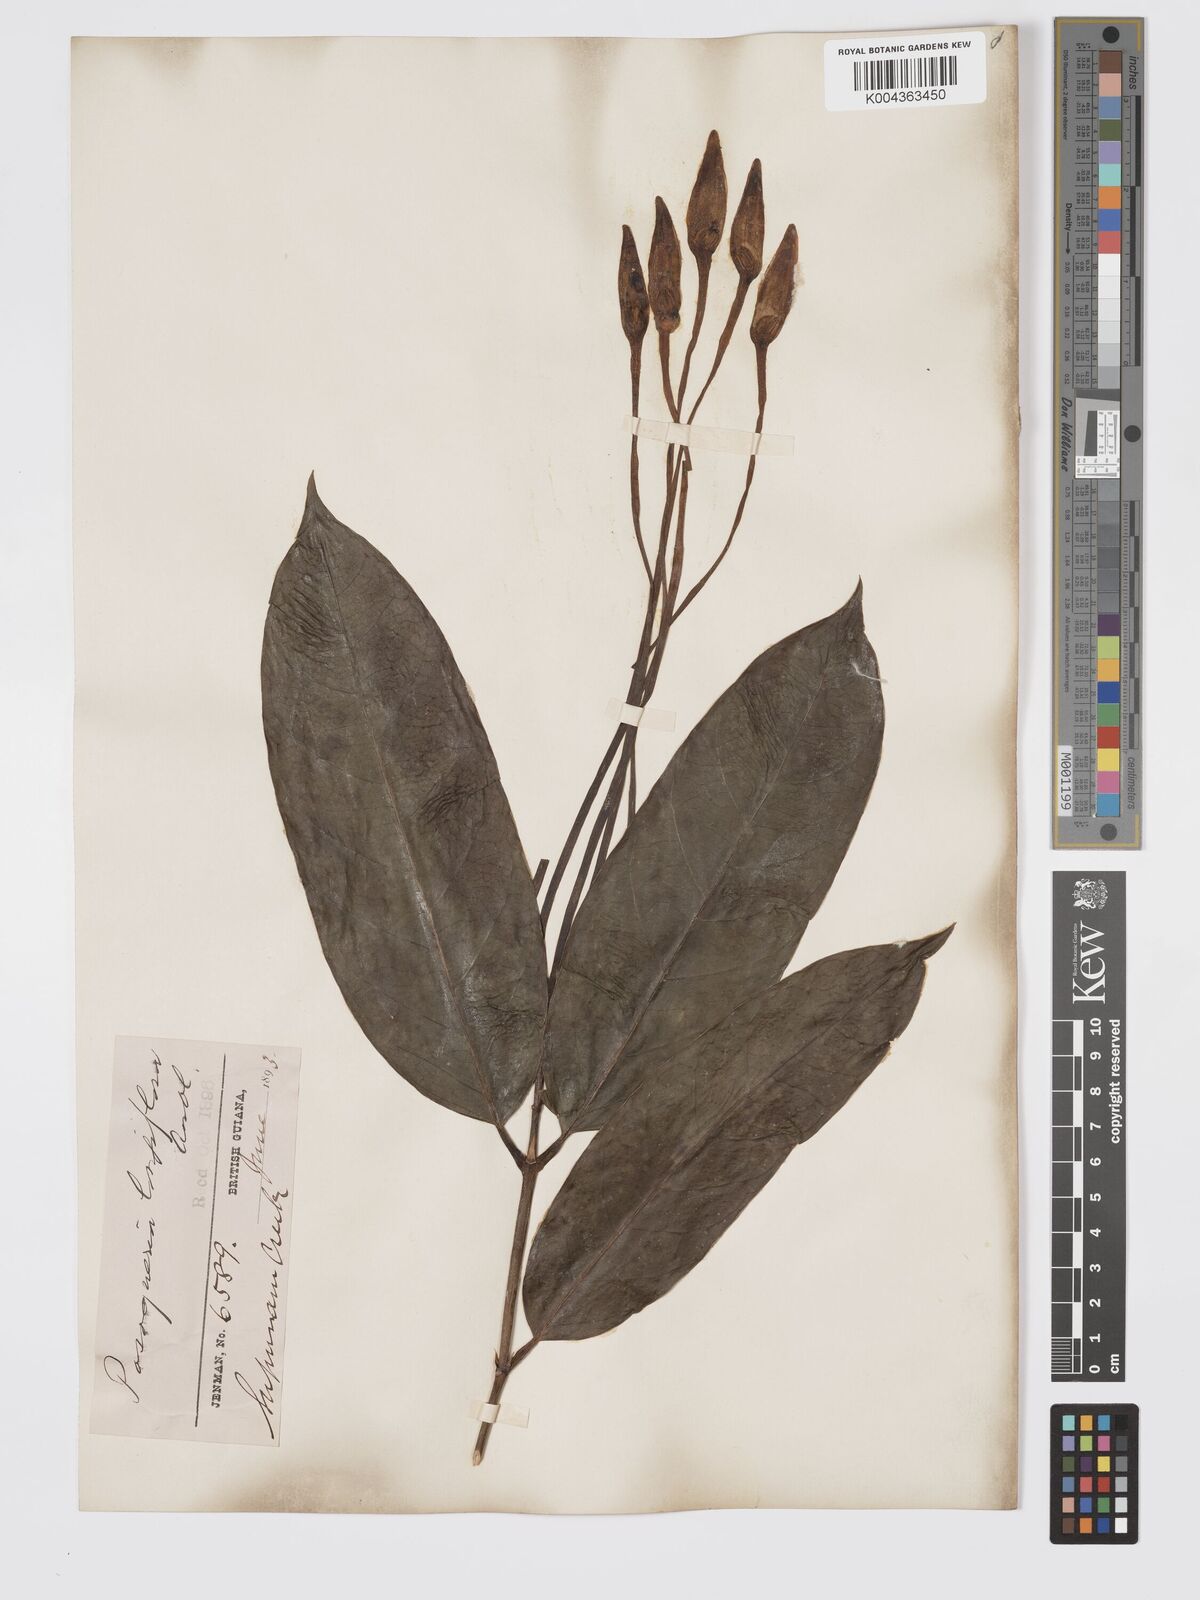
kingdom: Plantae
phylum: Tracheophyta
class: Magnoliopsida
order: Gentianales
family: Rubiaceae
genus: Posoqueria
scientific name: Posoqueria
